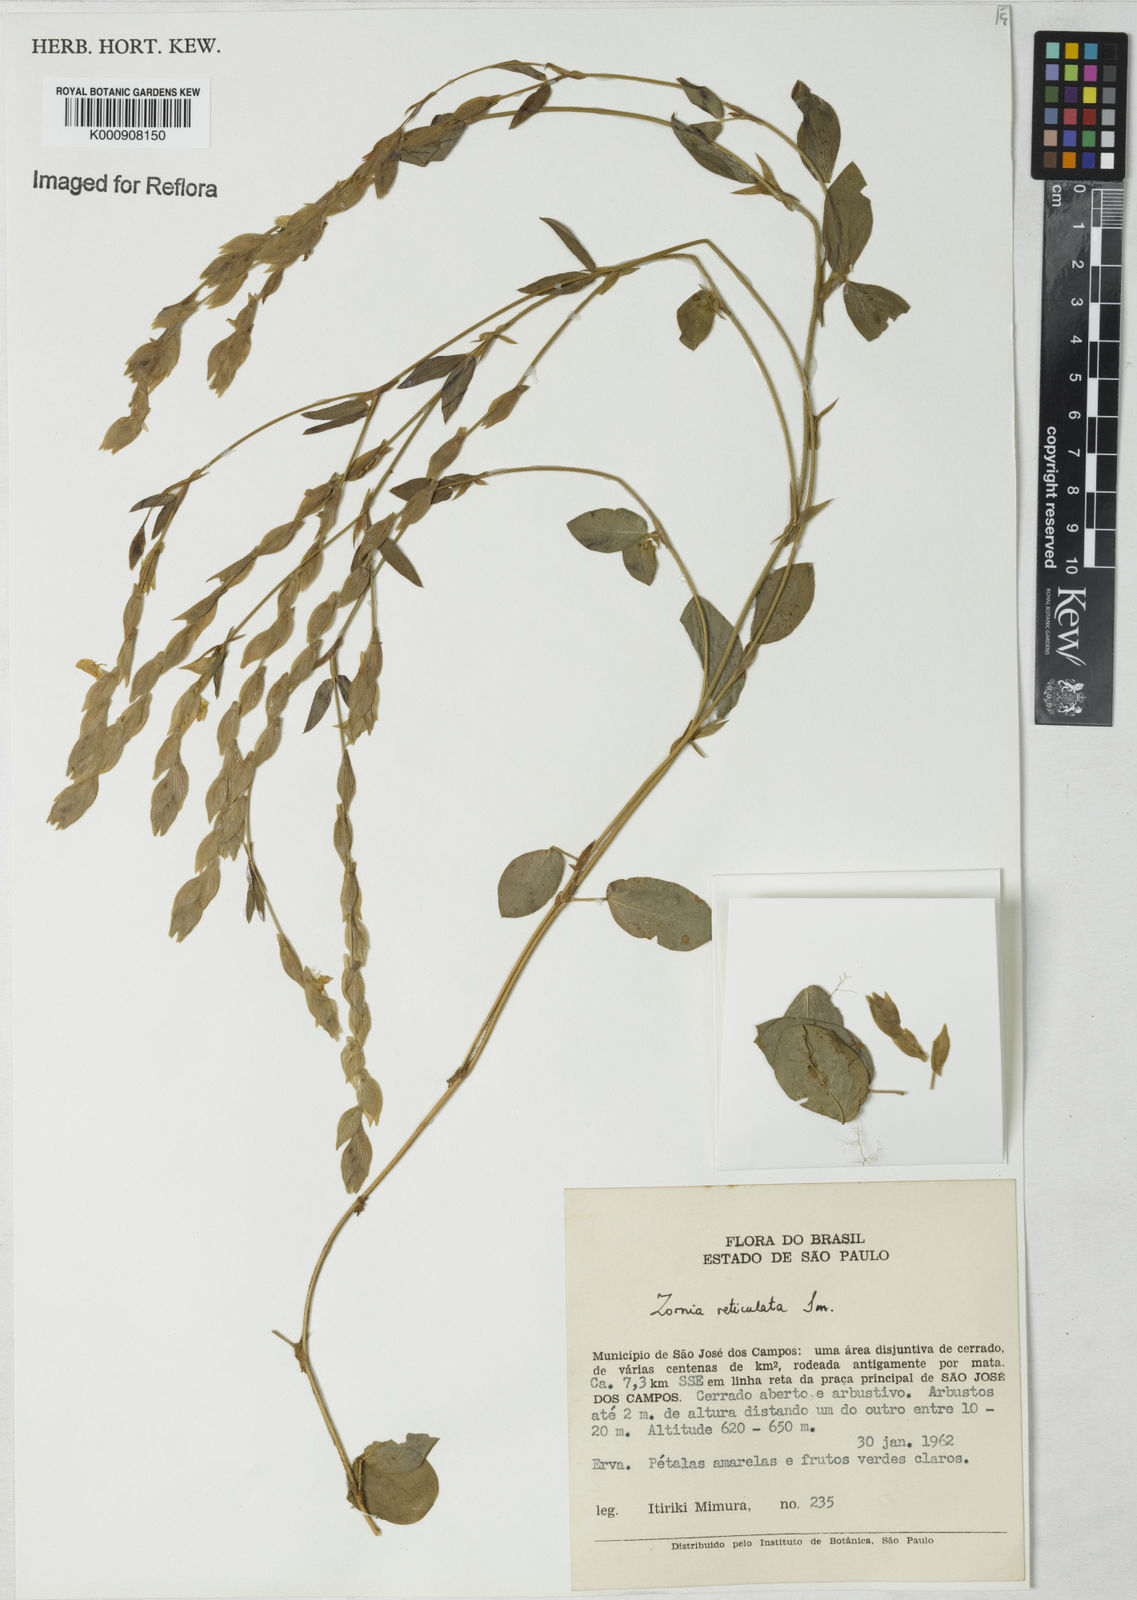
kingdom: Plantae
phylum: Tracheophyta
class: Magnoliopsida
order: Fabales
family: Fabaceae
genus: Zornia
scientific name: Zornia reticulata
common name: Reticulate viperina
